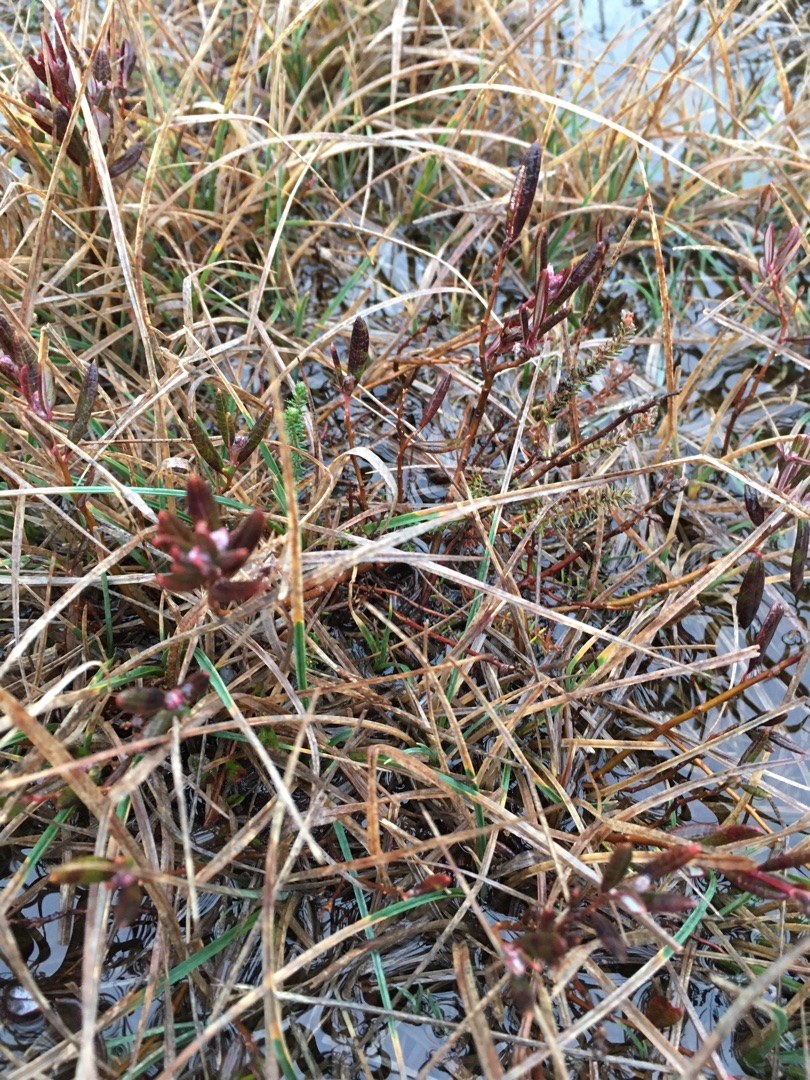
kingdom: Plantae
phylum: Tracheophyta
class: Magnoliopsida
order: Ericales
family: Ericaceae
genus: Andromeda
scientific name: Andromeda polifolia
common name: Rosmarinlyng
